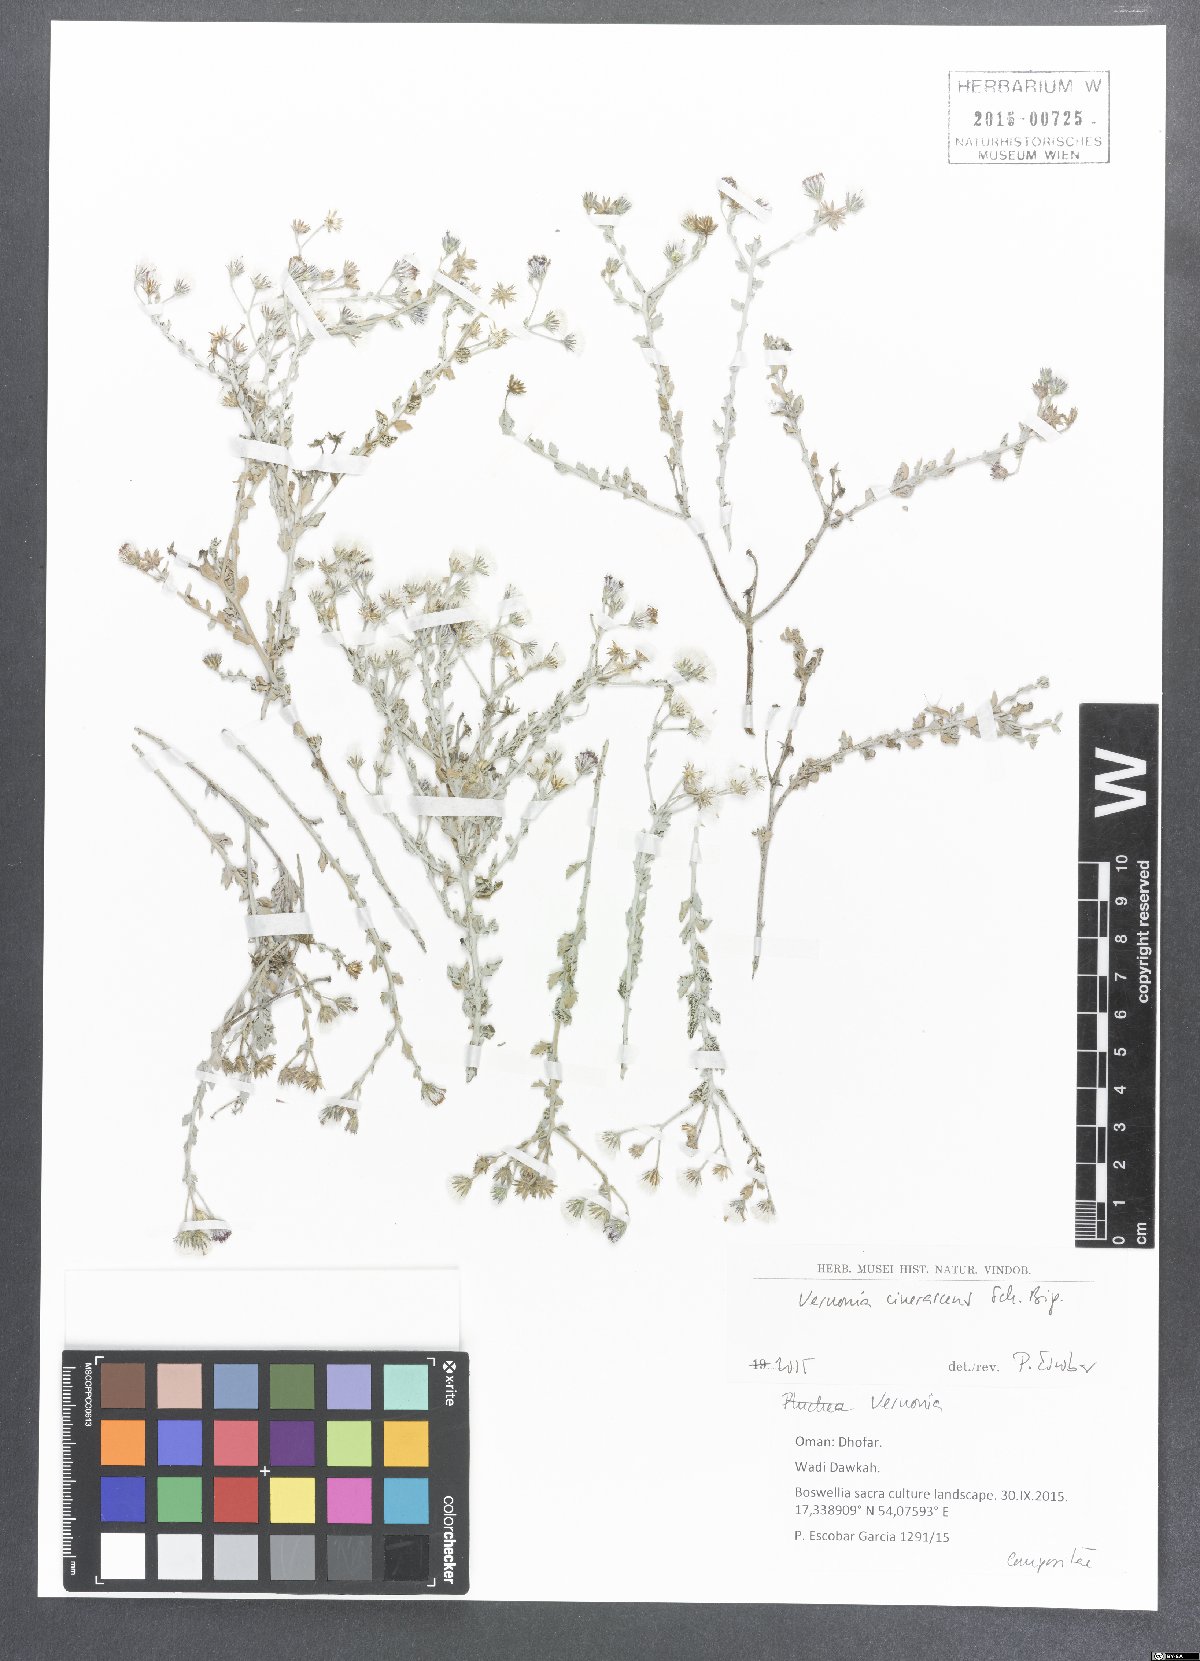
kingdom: Plantae
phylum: Tracheophyta
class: Magnoliopsida
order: Asterales
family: Asteraceae
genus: Orbivestus
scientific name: Orbivestus cinerascens
